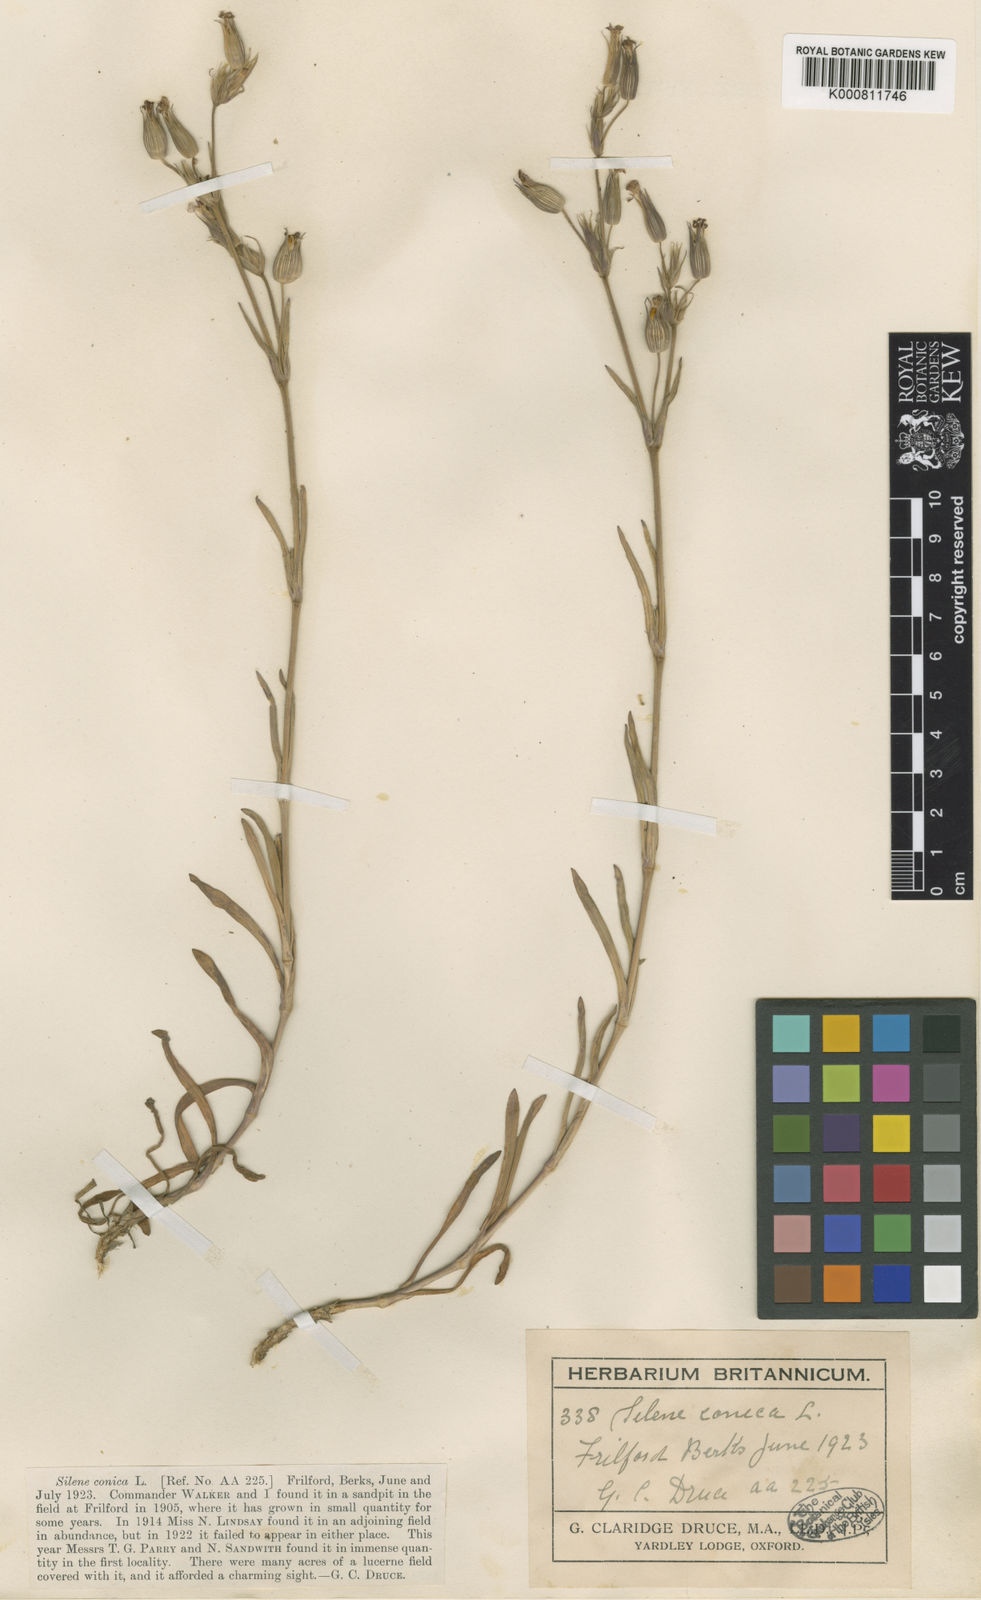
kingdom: Plantae
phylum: Tracheophyta
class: Magnoliopsida
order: Caryophyllales
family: Caryophyllaceae
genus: Silene
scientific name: Silene conica
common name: Sand catchfly
